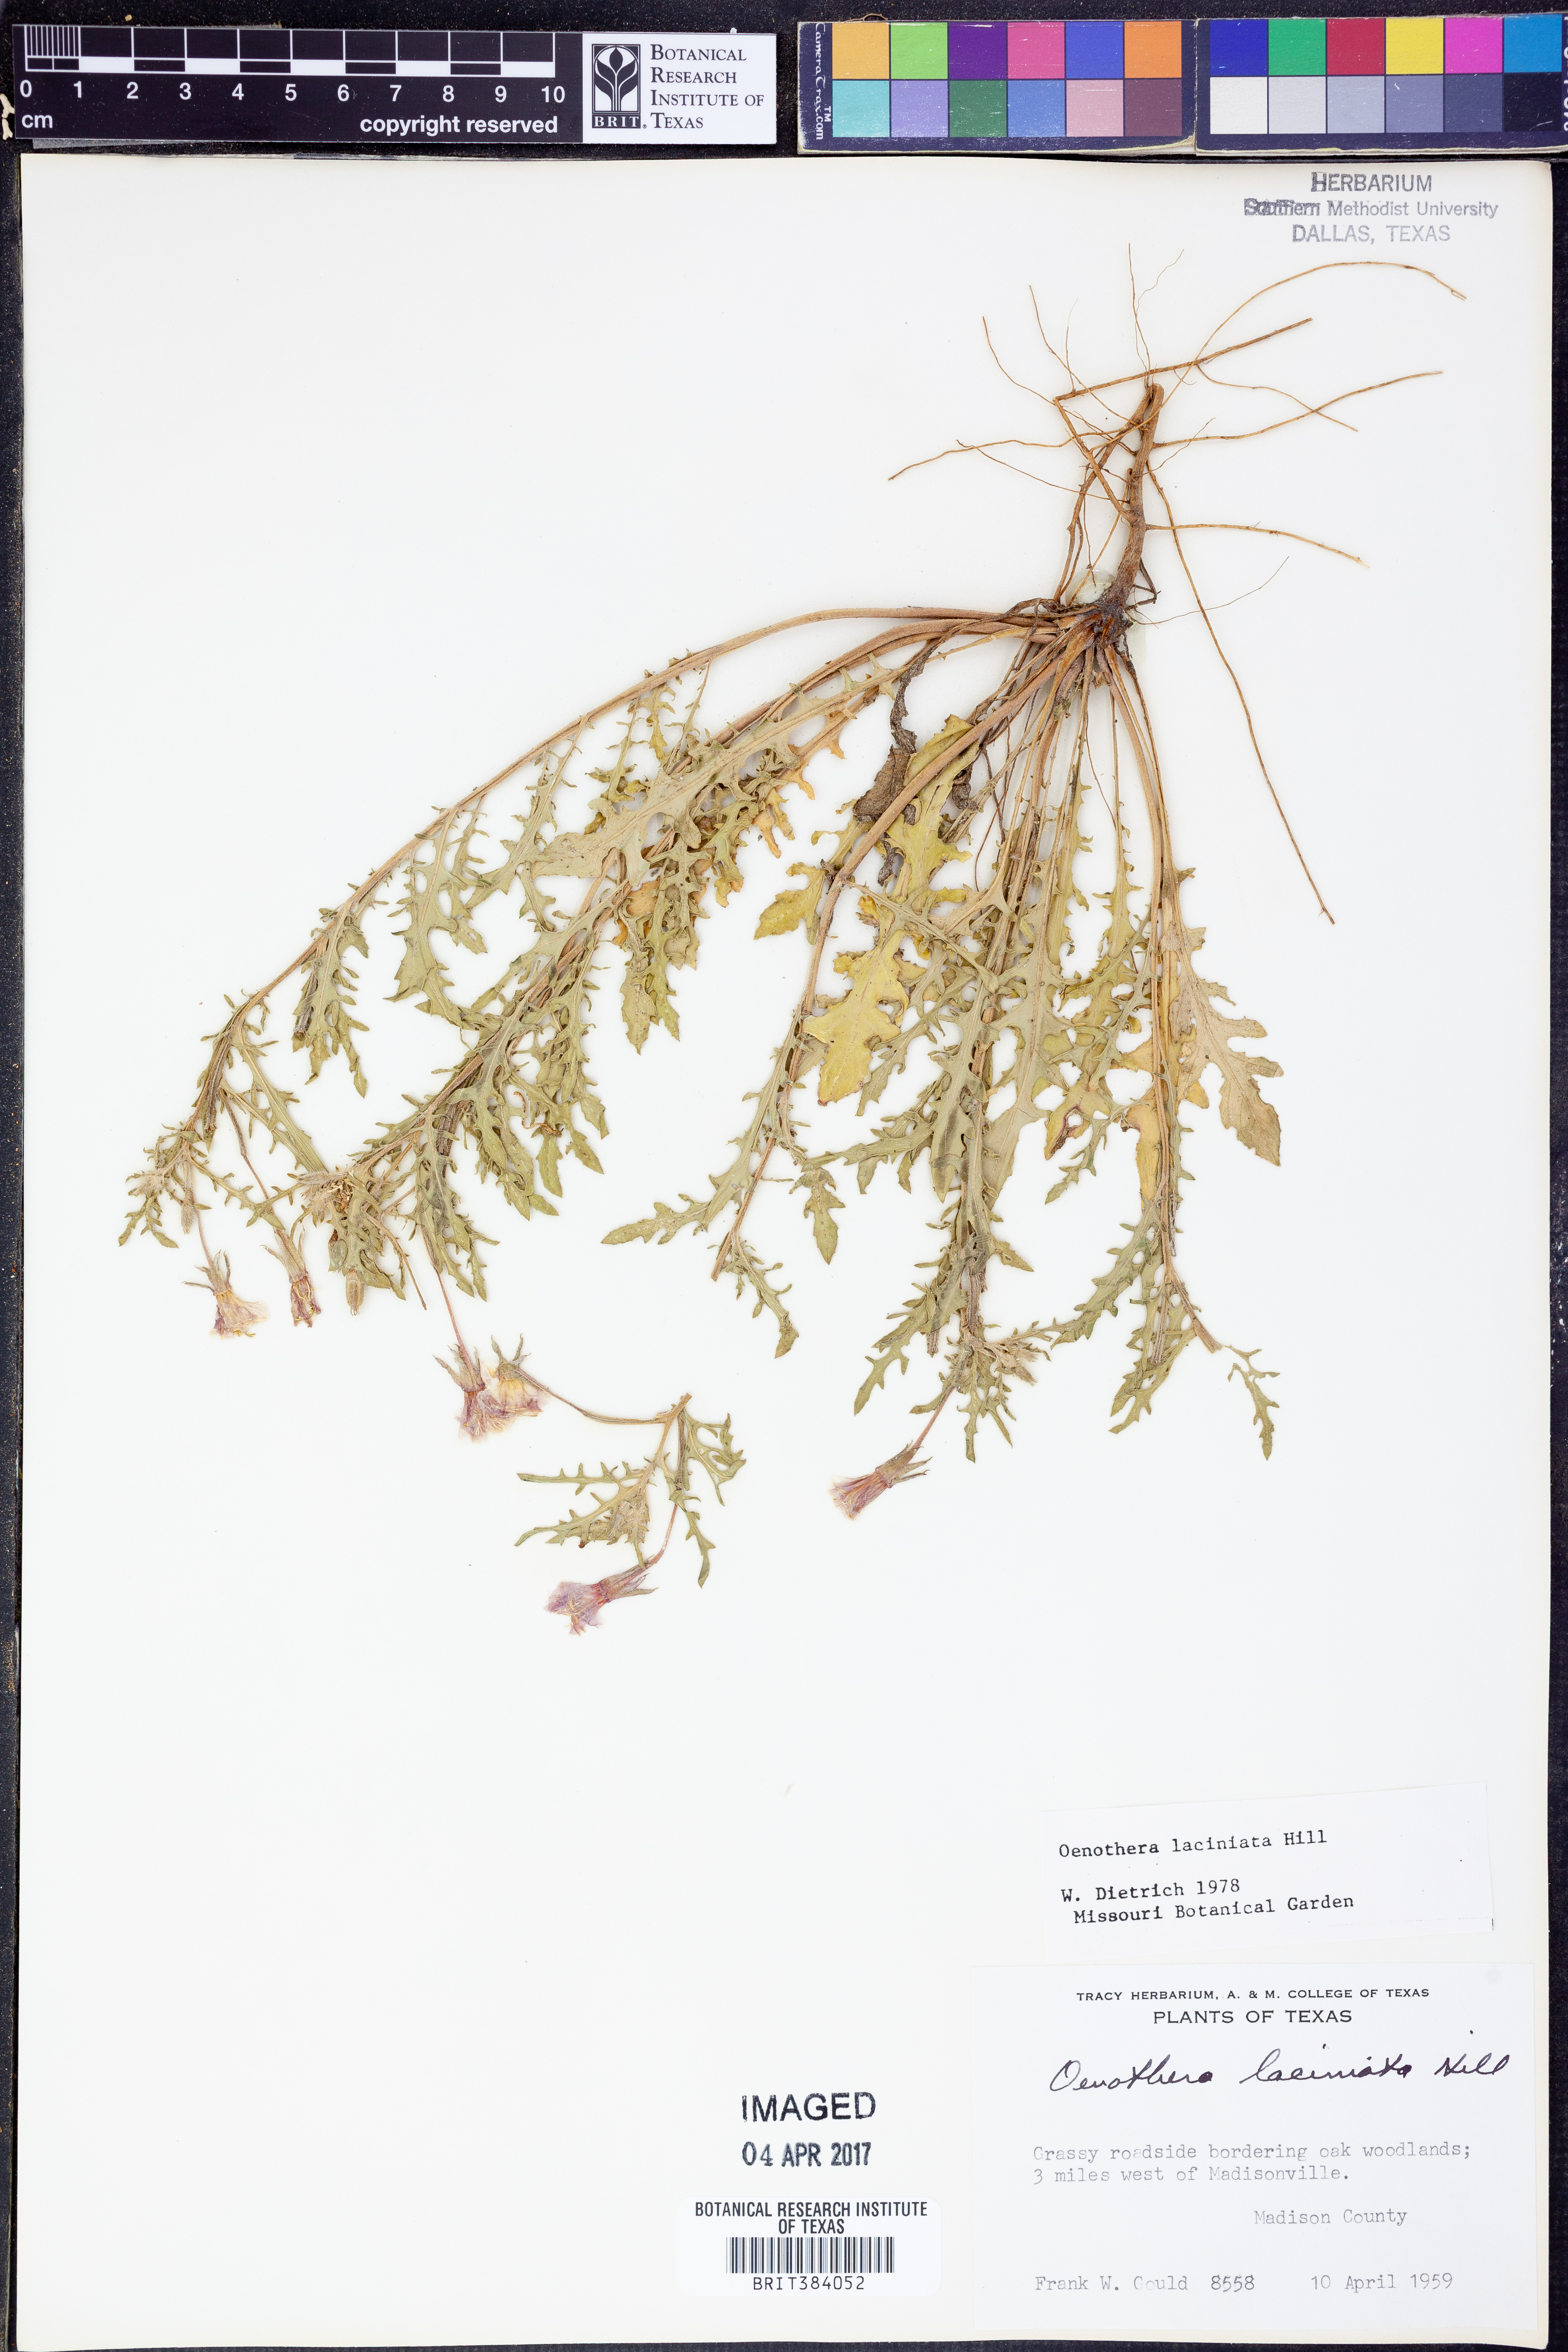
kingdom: Plantae
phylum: Tracheophyta
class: Magnoliopsida
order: Myrtales
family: Onagraceae
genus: Oenothera
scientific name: Oenothera laciniata
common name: Cut-leaved evening-primrose
